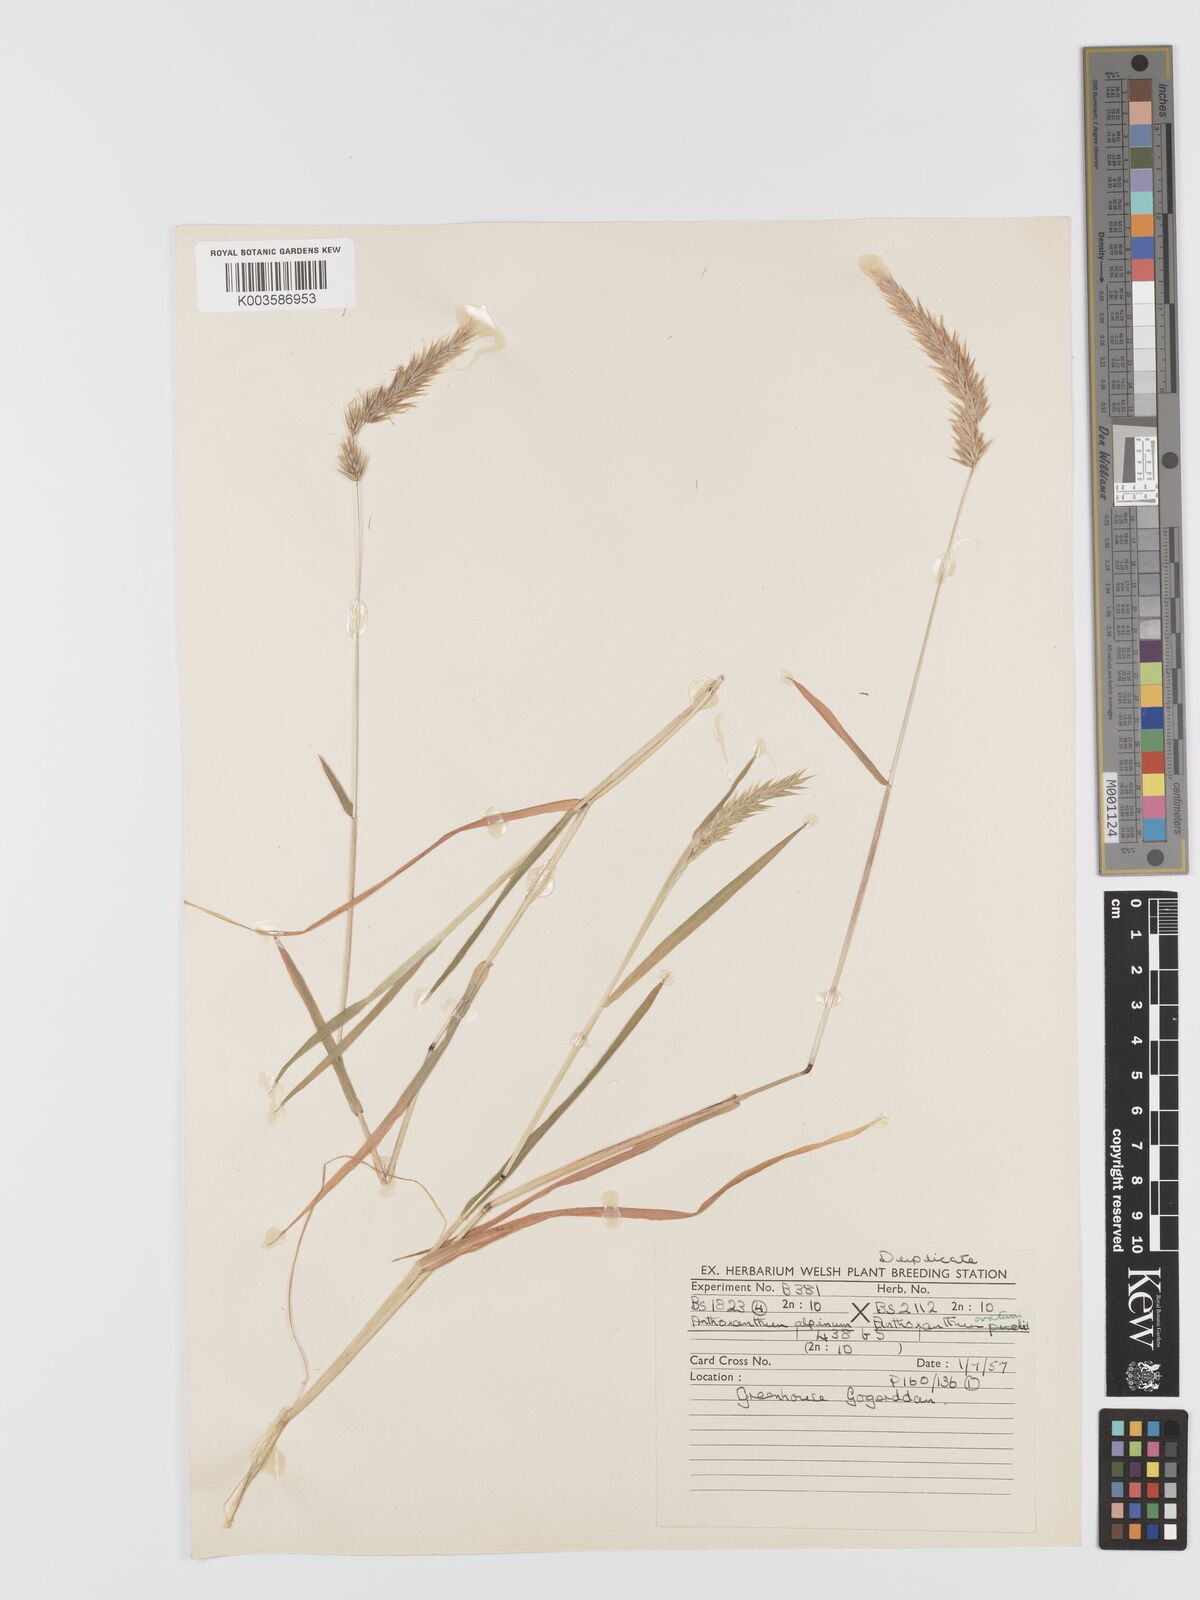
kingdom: Plantae
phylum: Tracheophyta
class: Liliopsida
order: Poales
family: Poaceae
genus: Anthoxanthum
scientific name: Anthoxanthum nipponicum
